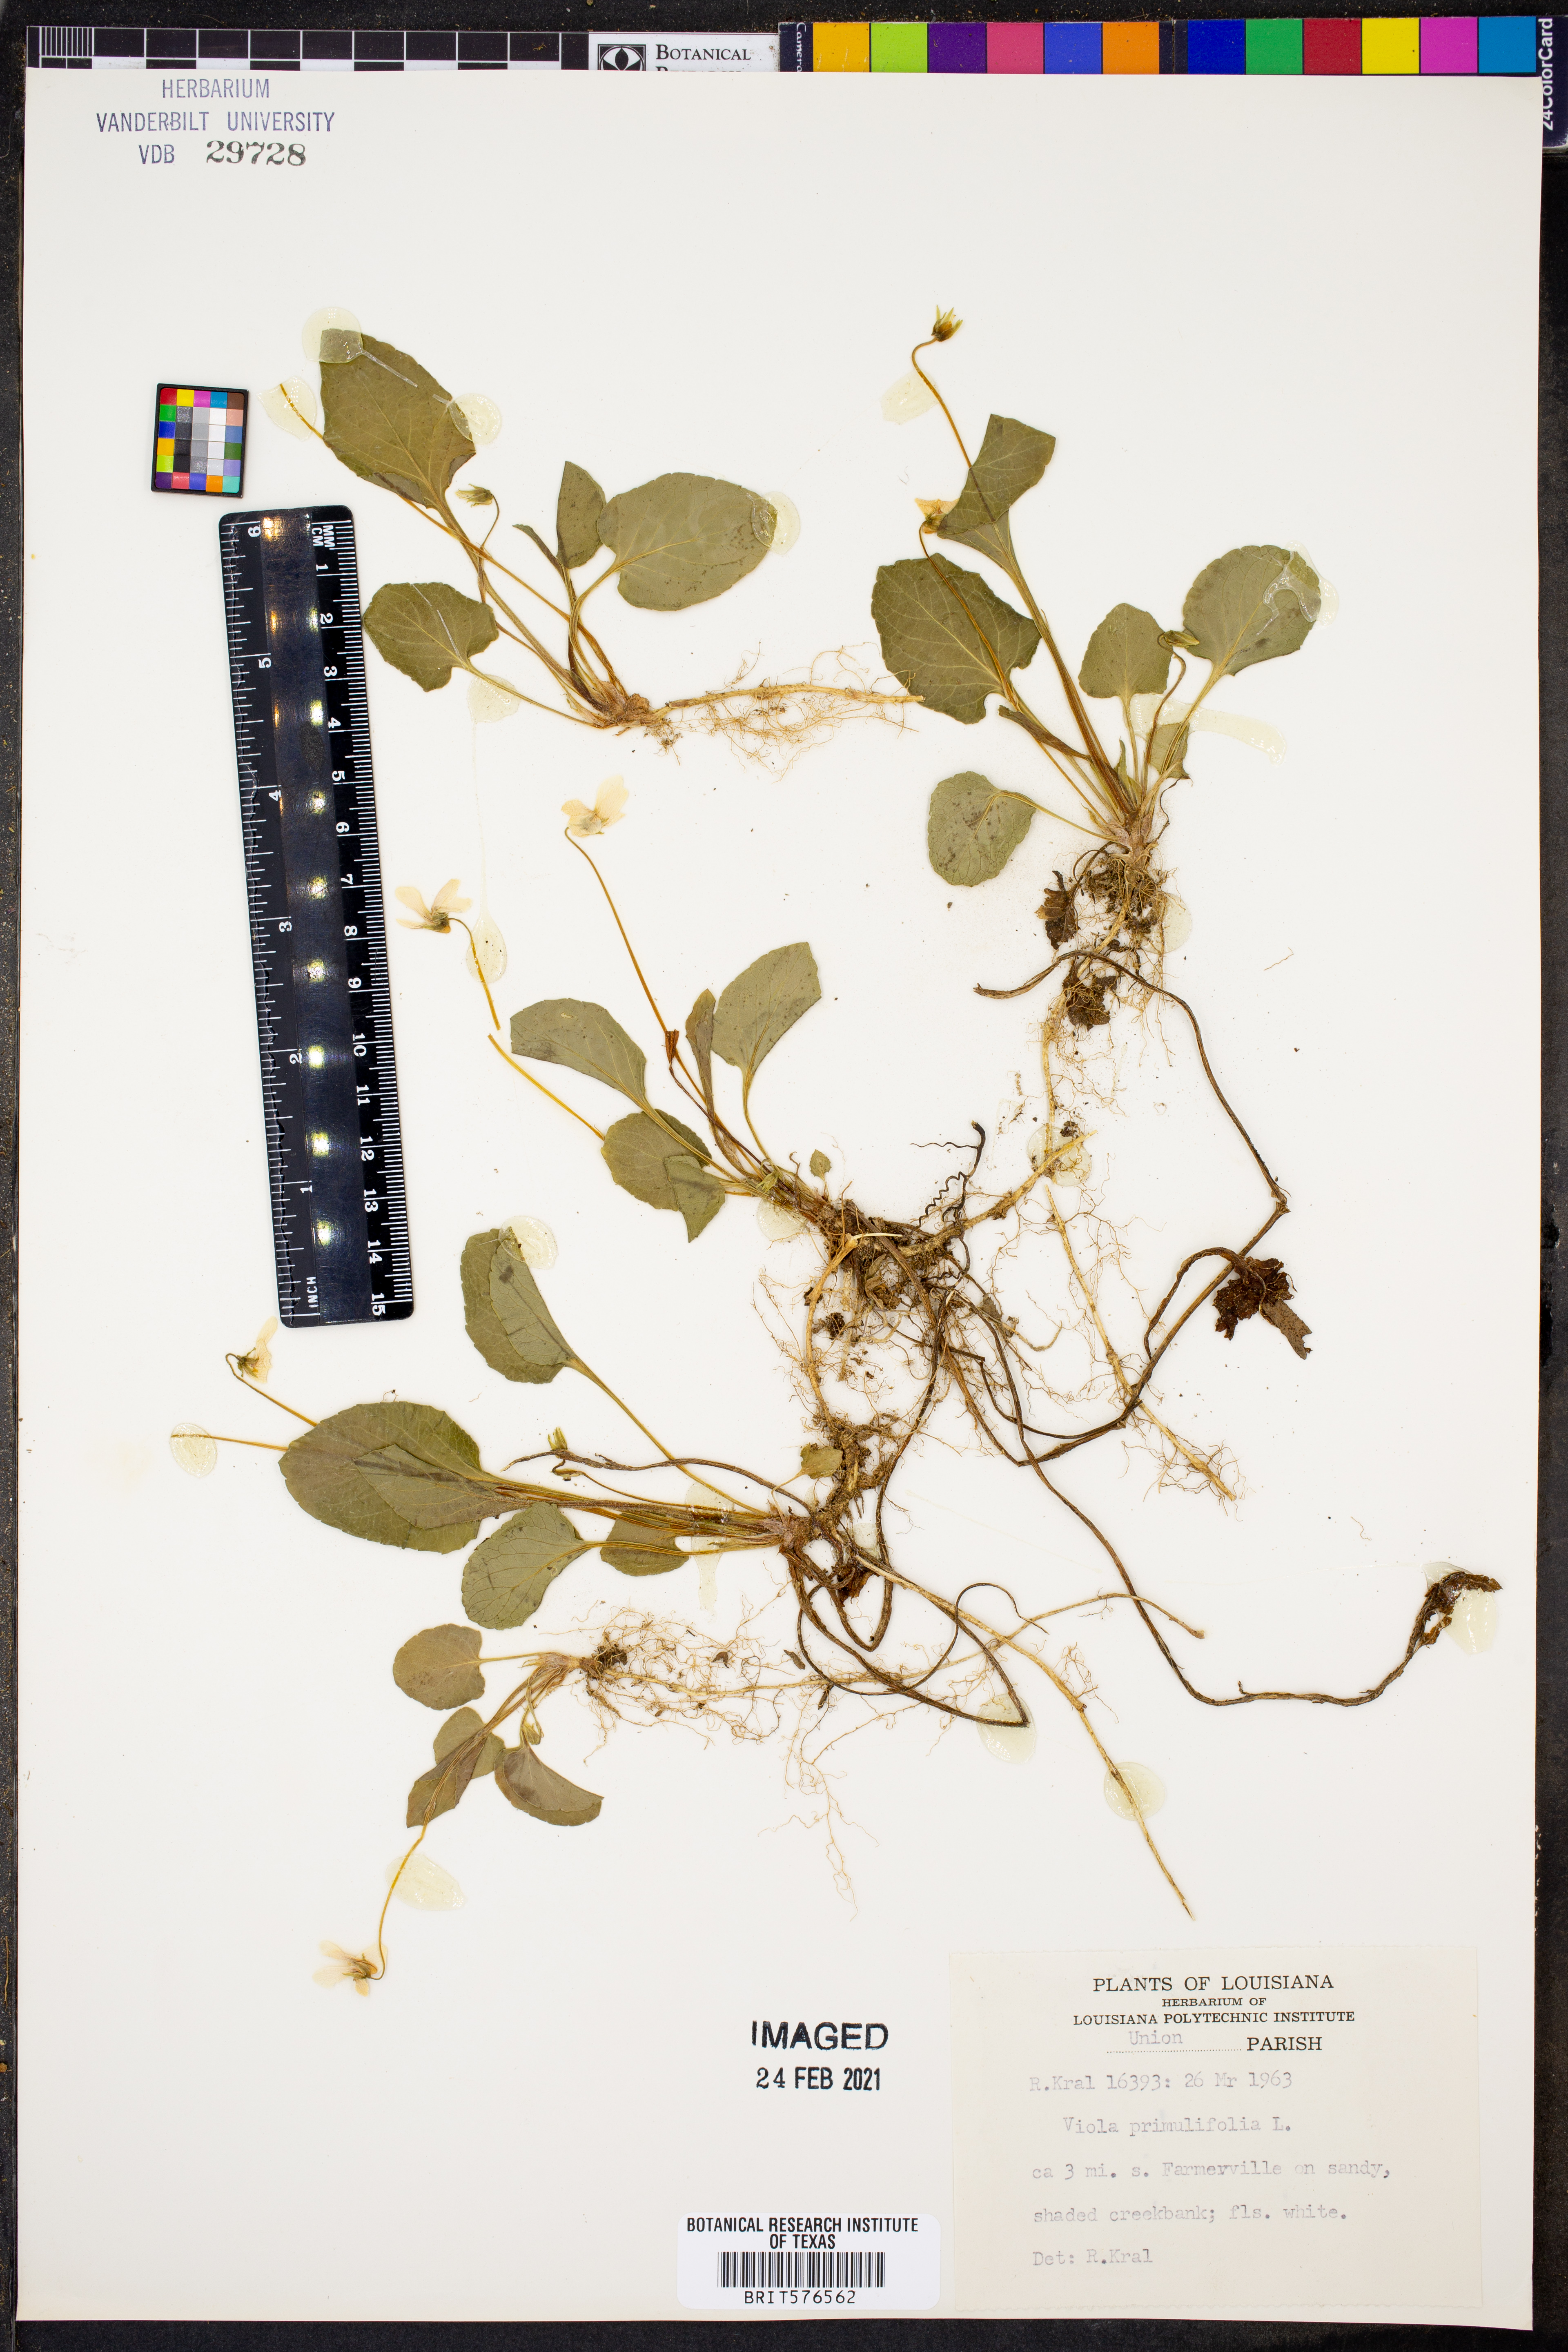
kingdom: Plantae
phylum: Tracheophyta
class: Magnoliopsida
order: Malpighiales
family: Violaceae
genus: Viola
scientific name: Viola primulifolia
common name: Primrose-leaf violet
